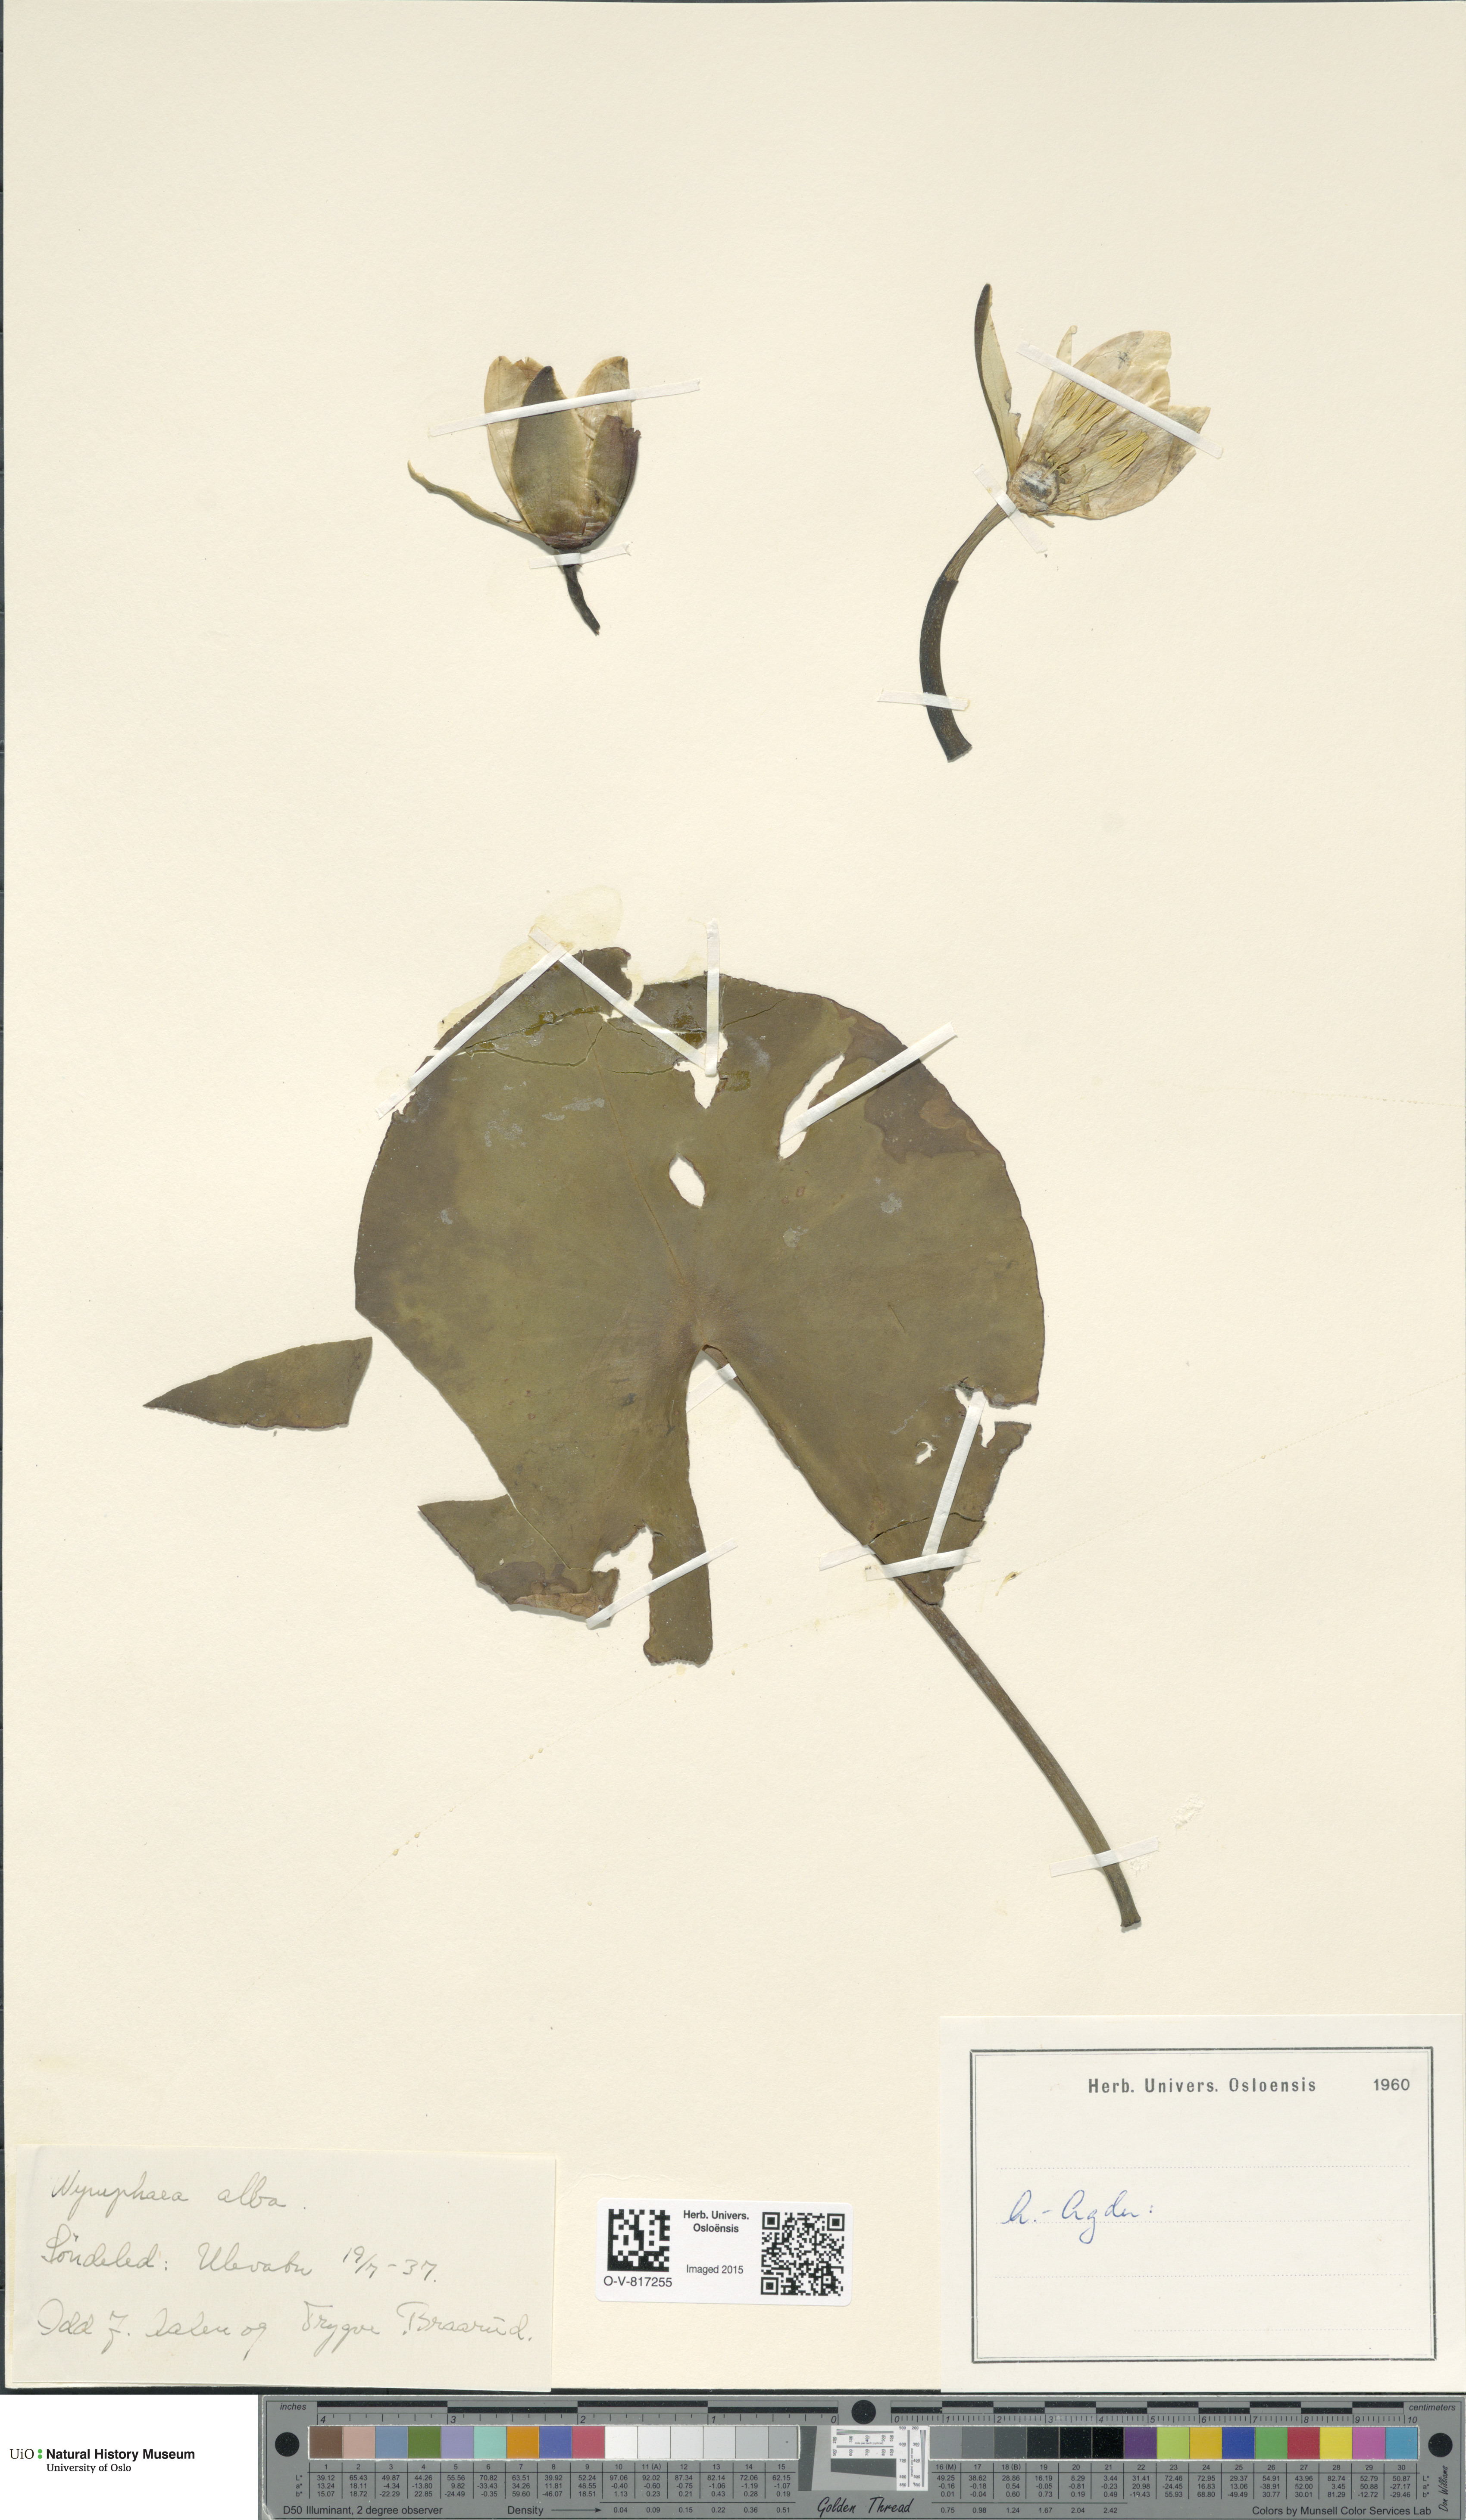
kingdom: Plantae
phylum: Tracheophyta
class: Magnoliopsida
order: Nymphaeales
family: Nymphaeaceae
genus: Nymphaea
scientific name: Nymphaea alba
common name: White water-lily
